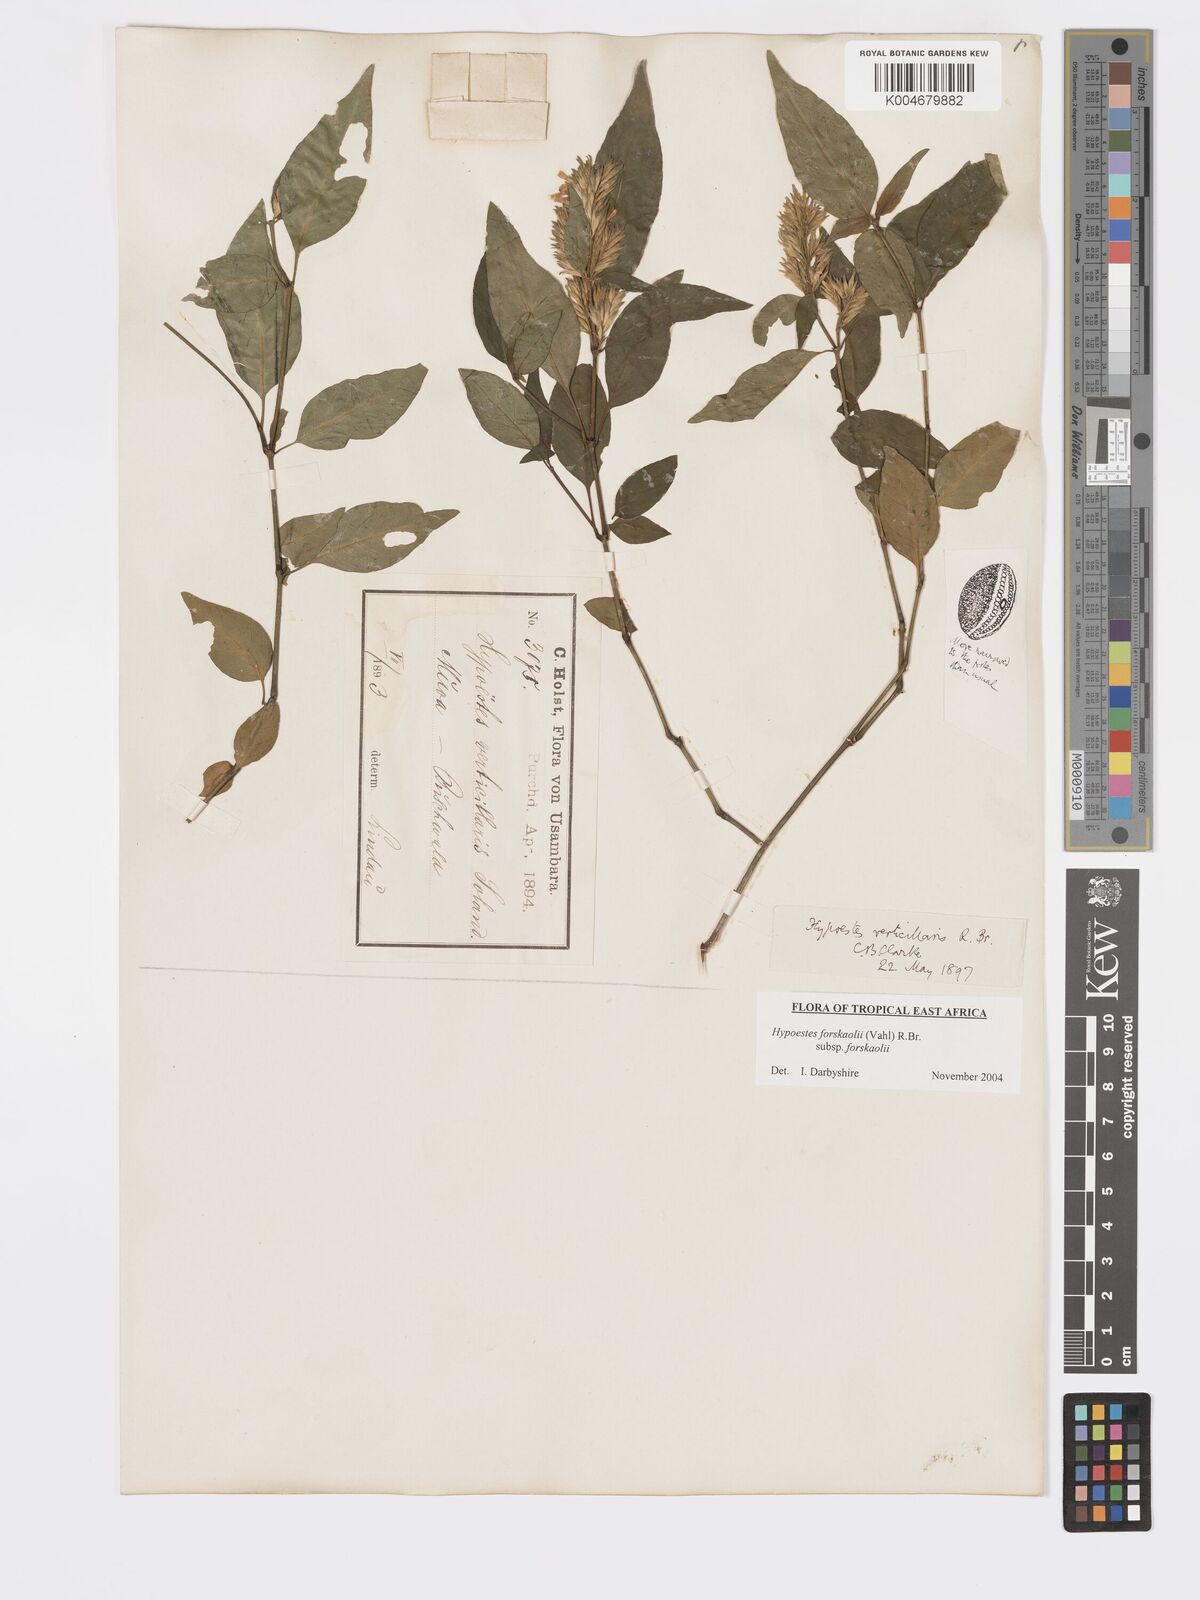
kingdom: Plantae
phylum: Tracheophyta
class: Magnoliopsida
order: Lamiales
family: Acanthaceae
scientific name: Acanthaceae
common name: Acanthaceae
